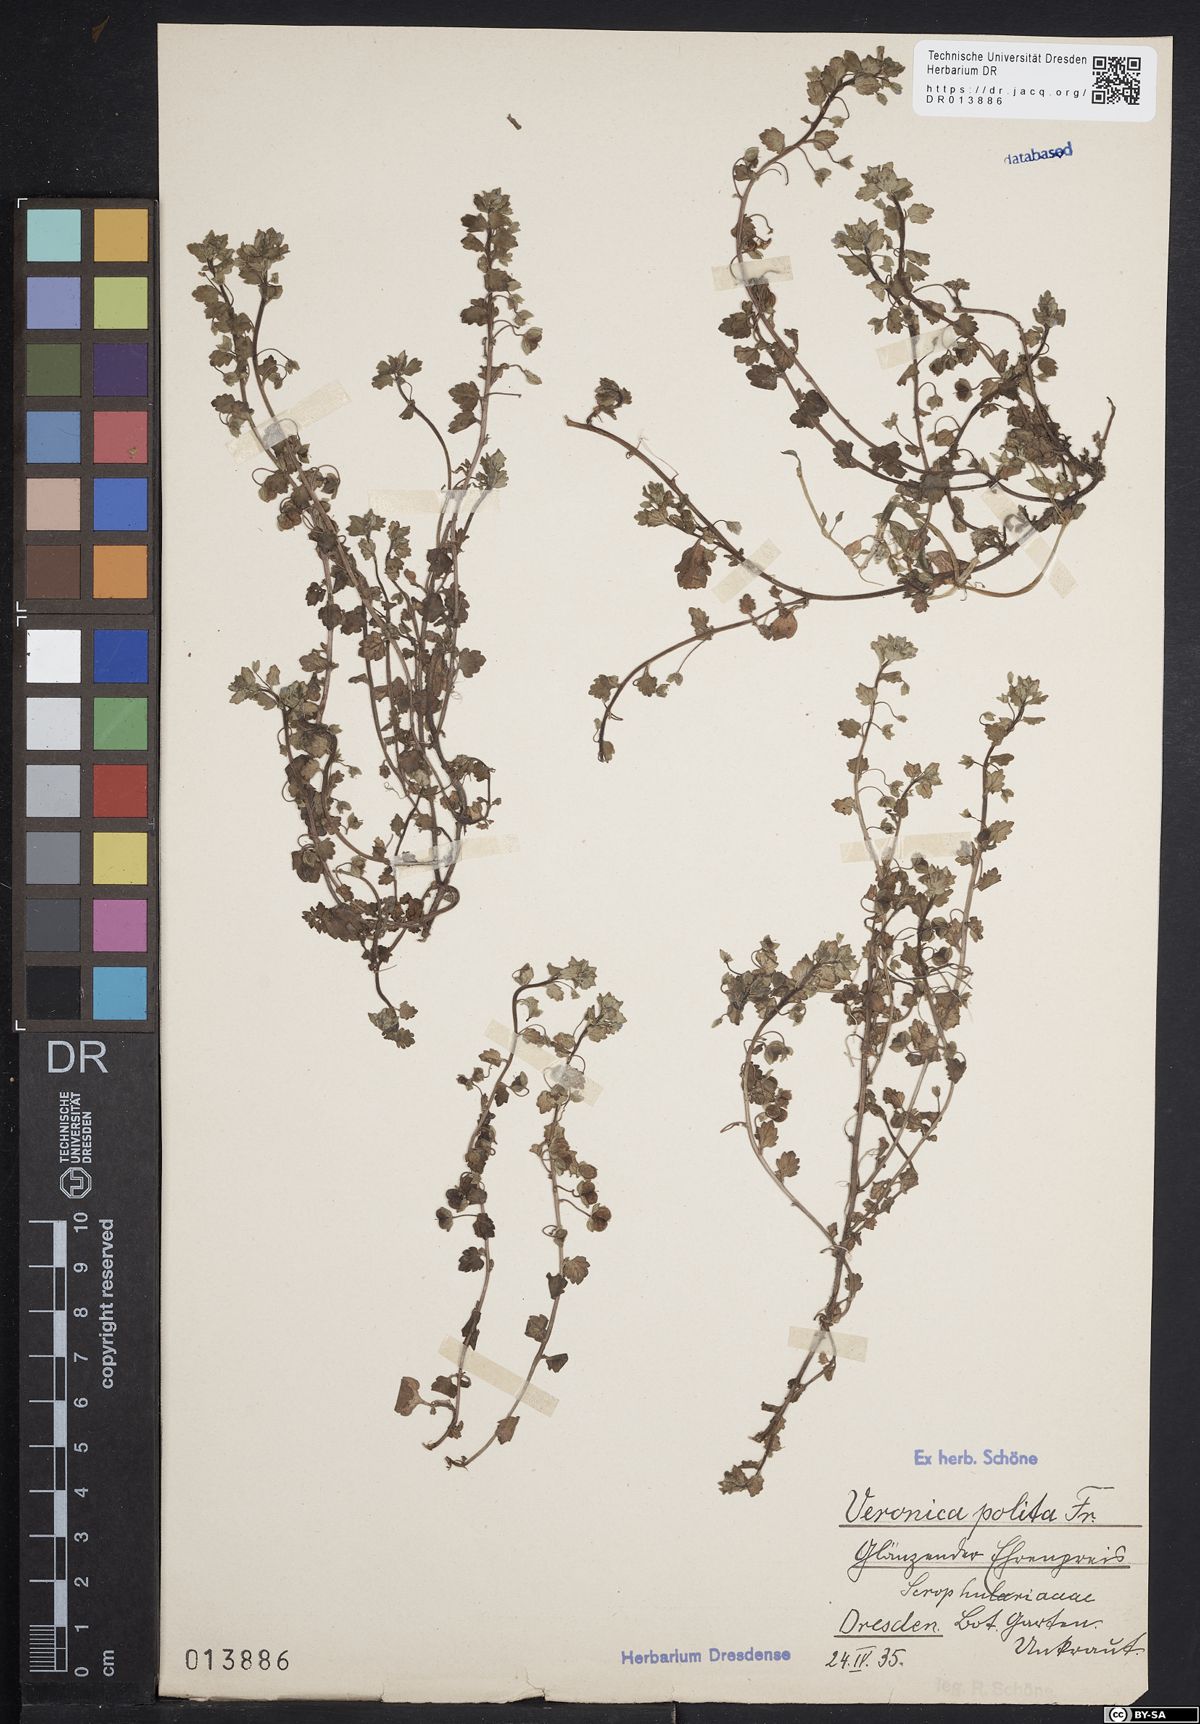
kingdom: Plantae
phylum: Tracheophyta
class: Magnoliopsida
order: Lamiales
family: Plantaginaceae
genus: Veronica
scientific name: Veronica polita
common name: Grey field-speedwell
